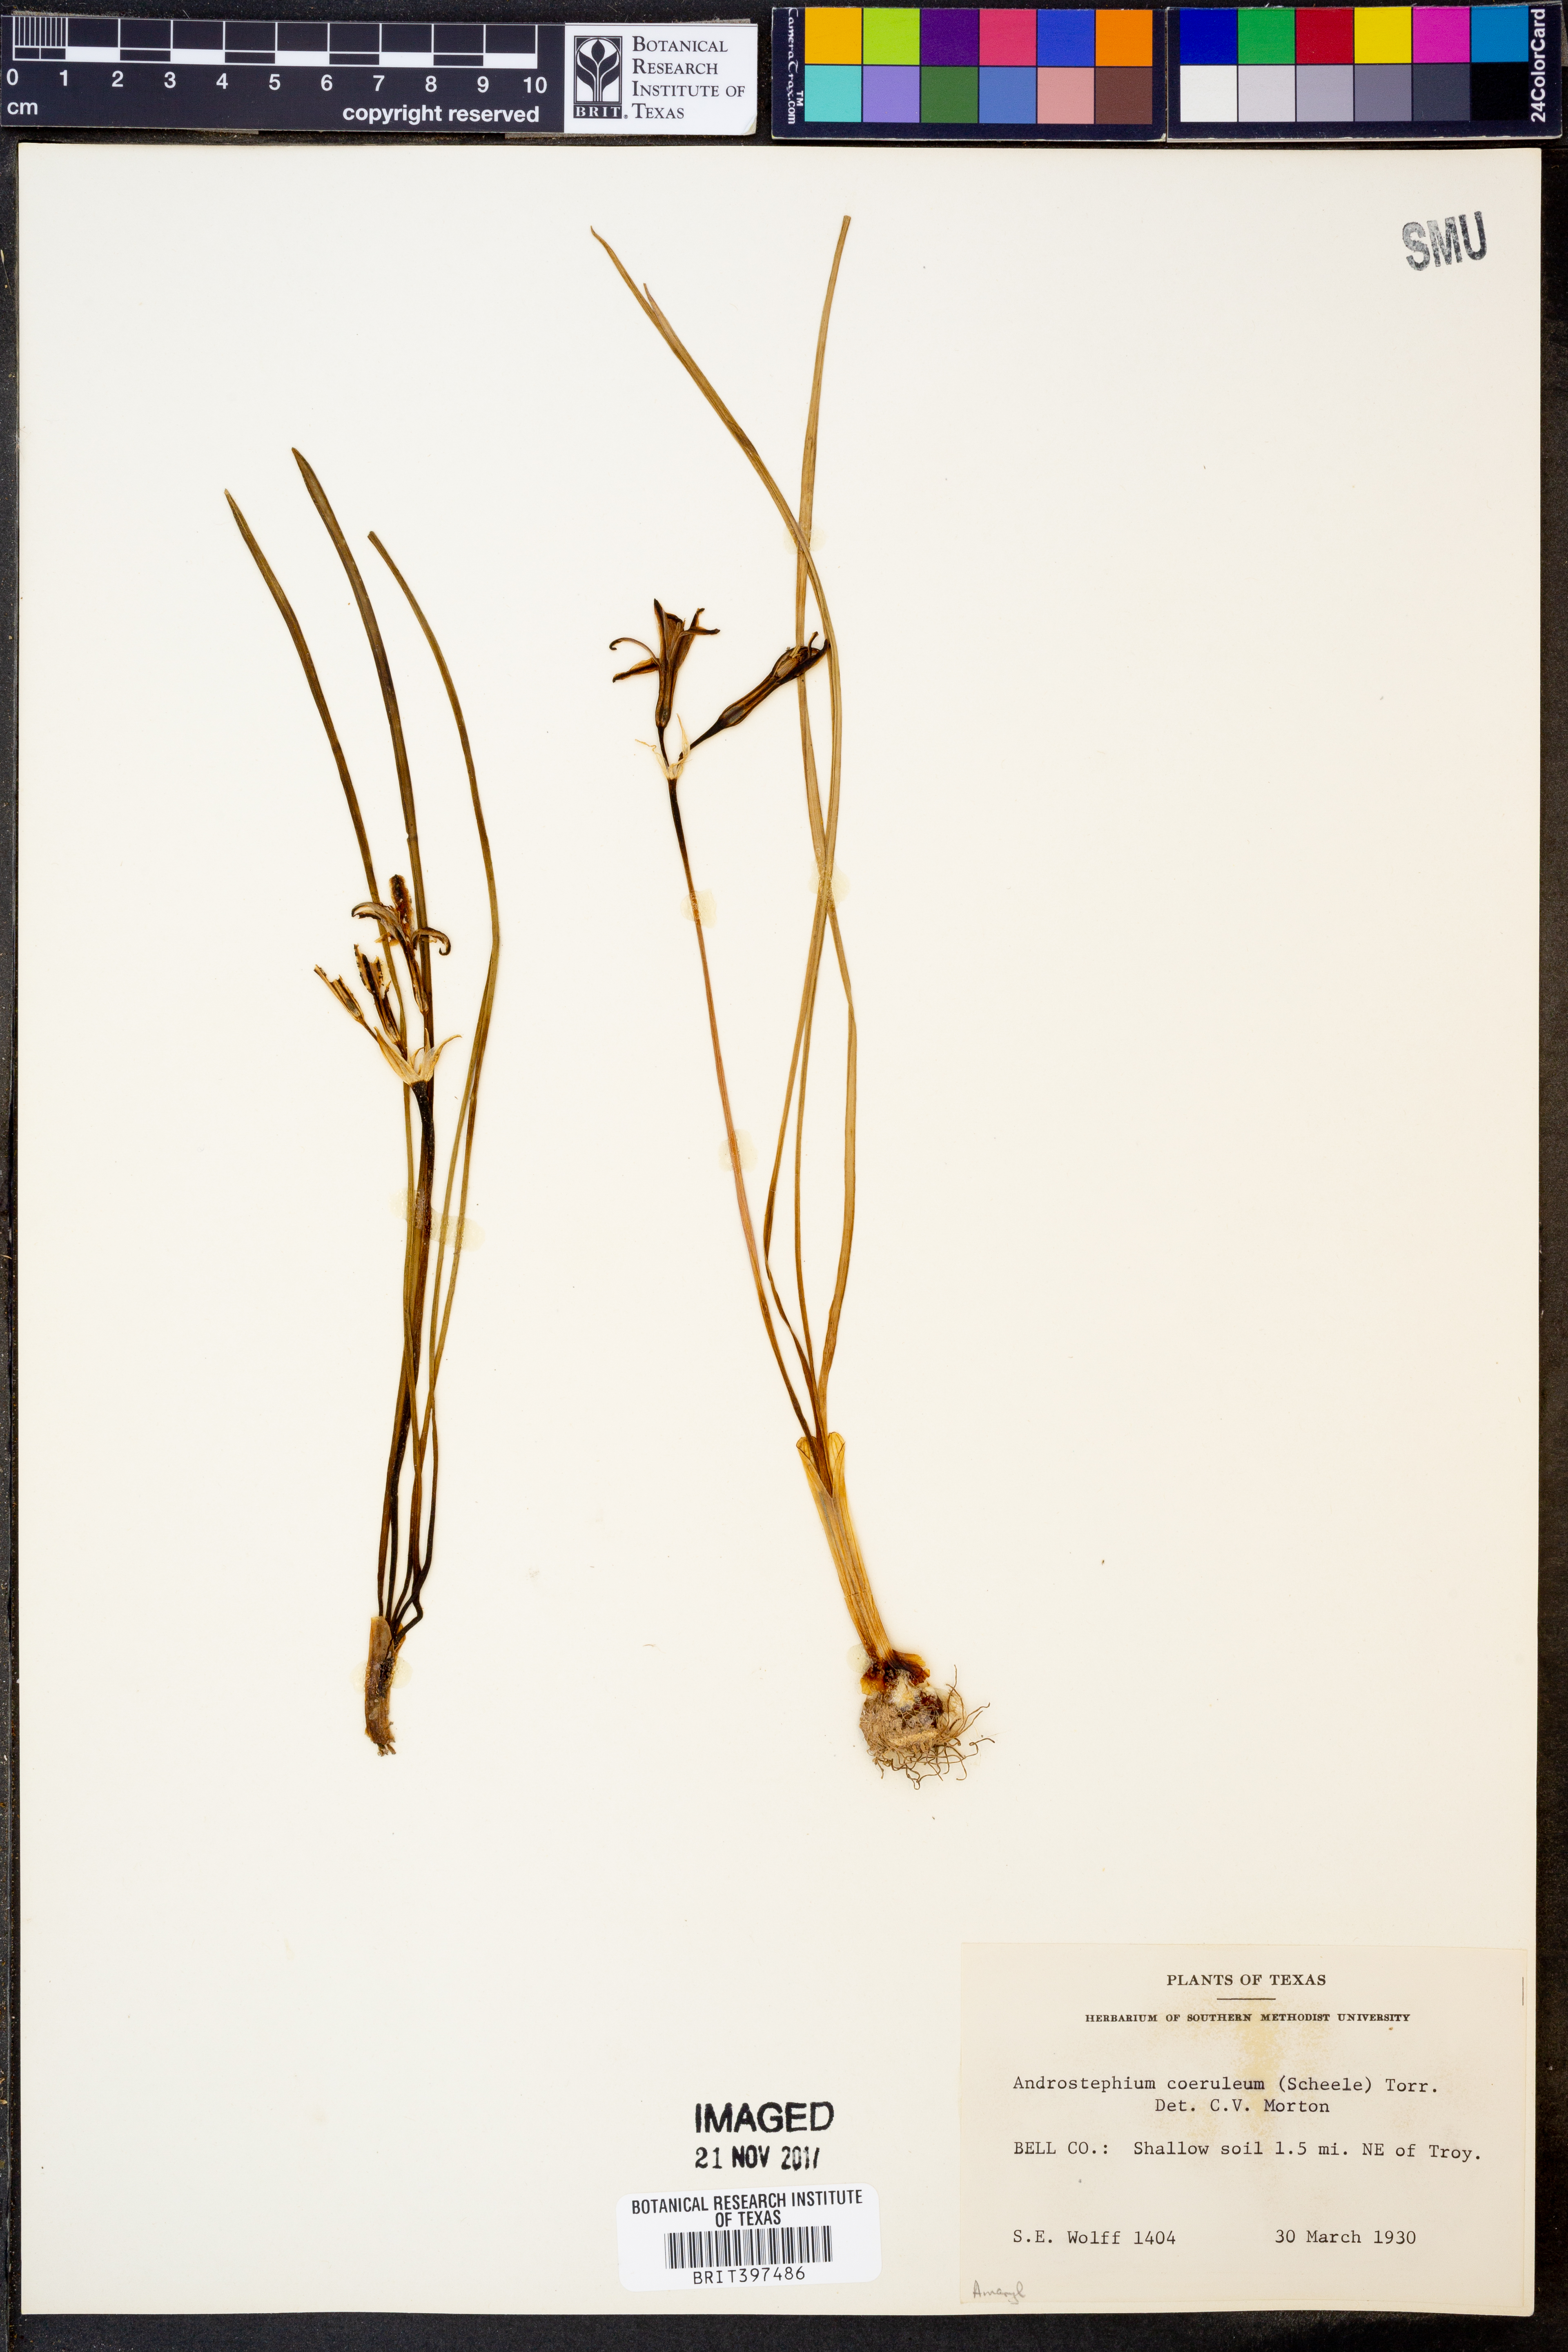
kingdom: Plantae
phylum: Tracheophyta
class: Liliopsida
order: Asparagales
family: Asparagaceae
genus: Androstephium
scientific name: Androstephium caeruleum
